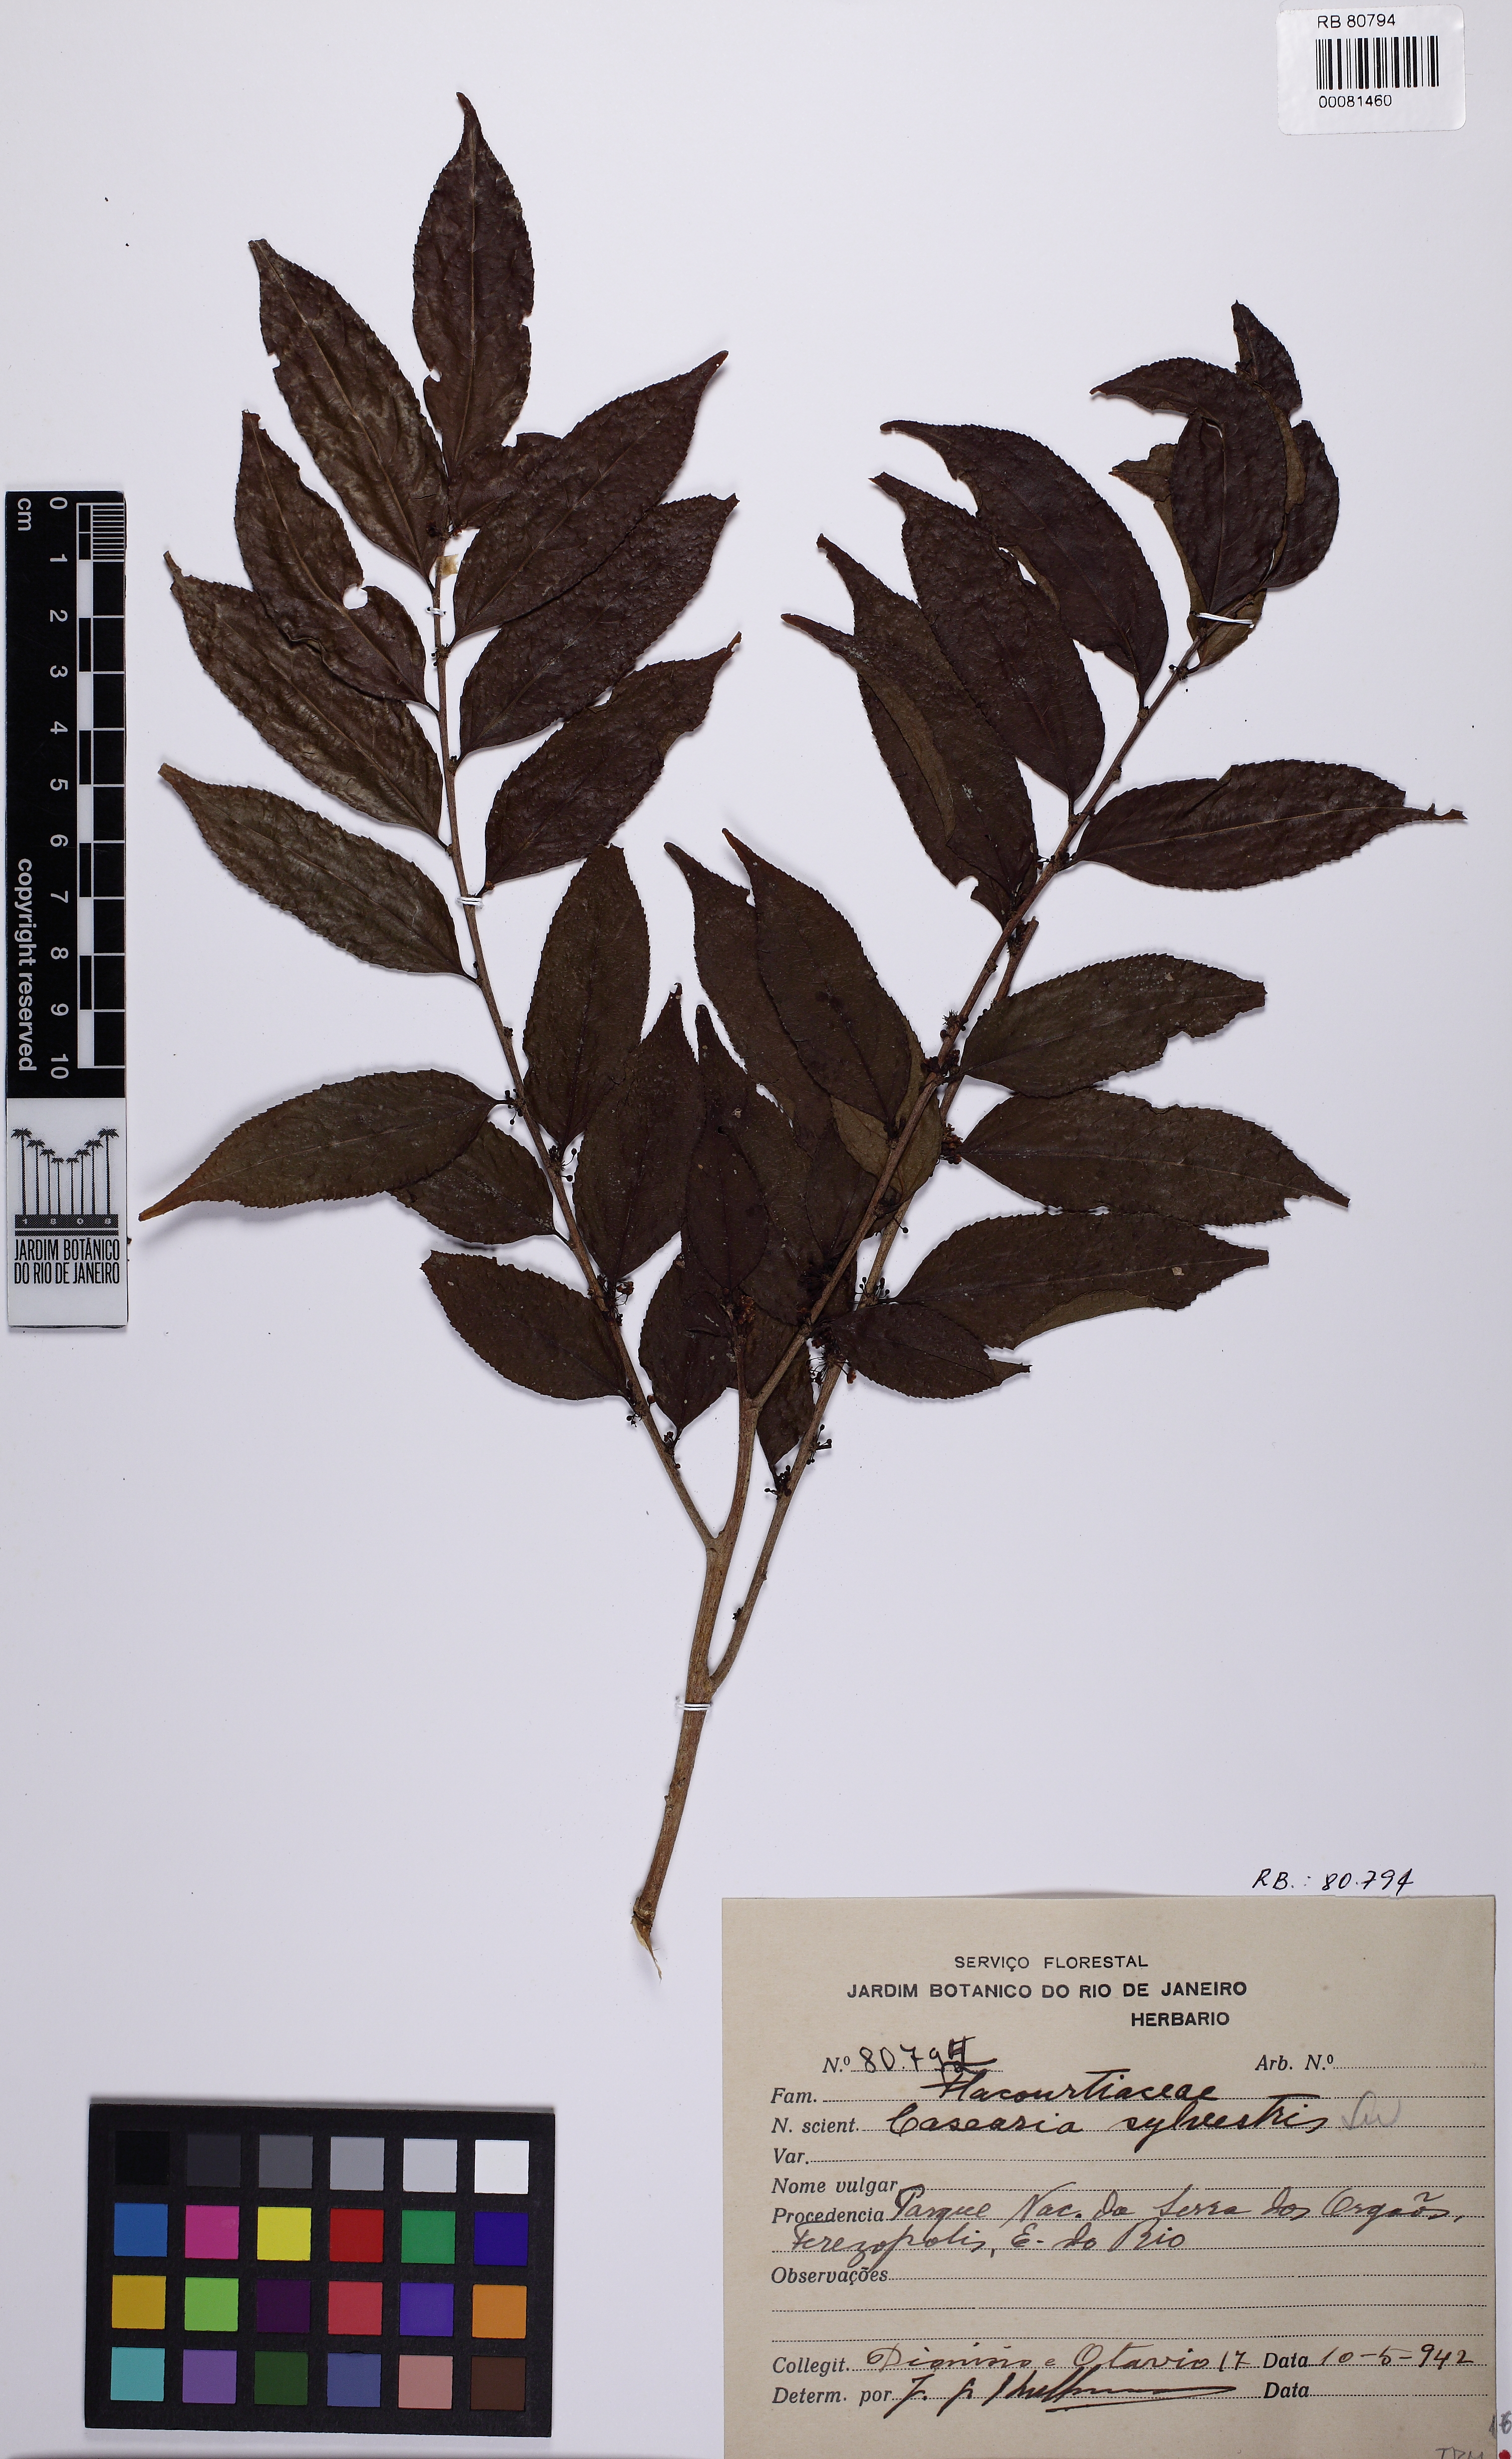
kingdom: Plantae
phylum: Tracheophyta
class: Magnoliopsida
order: Malpighiales
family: Salicaceae
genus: Casearia
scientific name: Casearia sylvestris
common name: Wild sage
